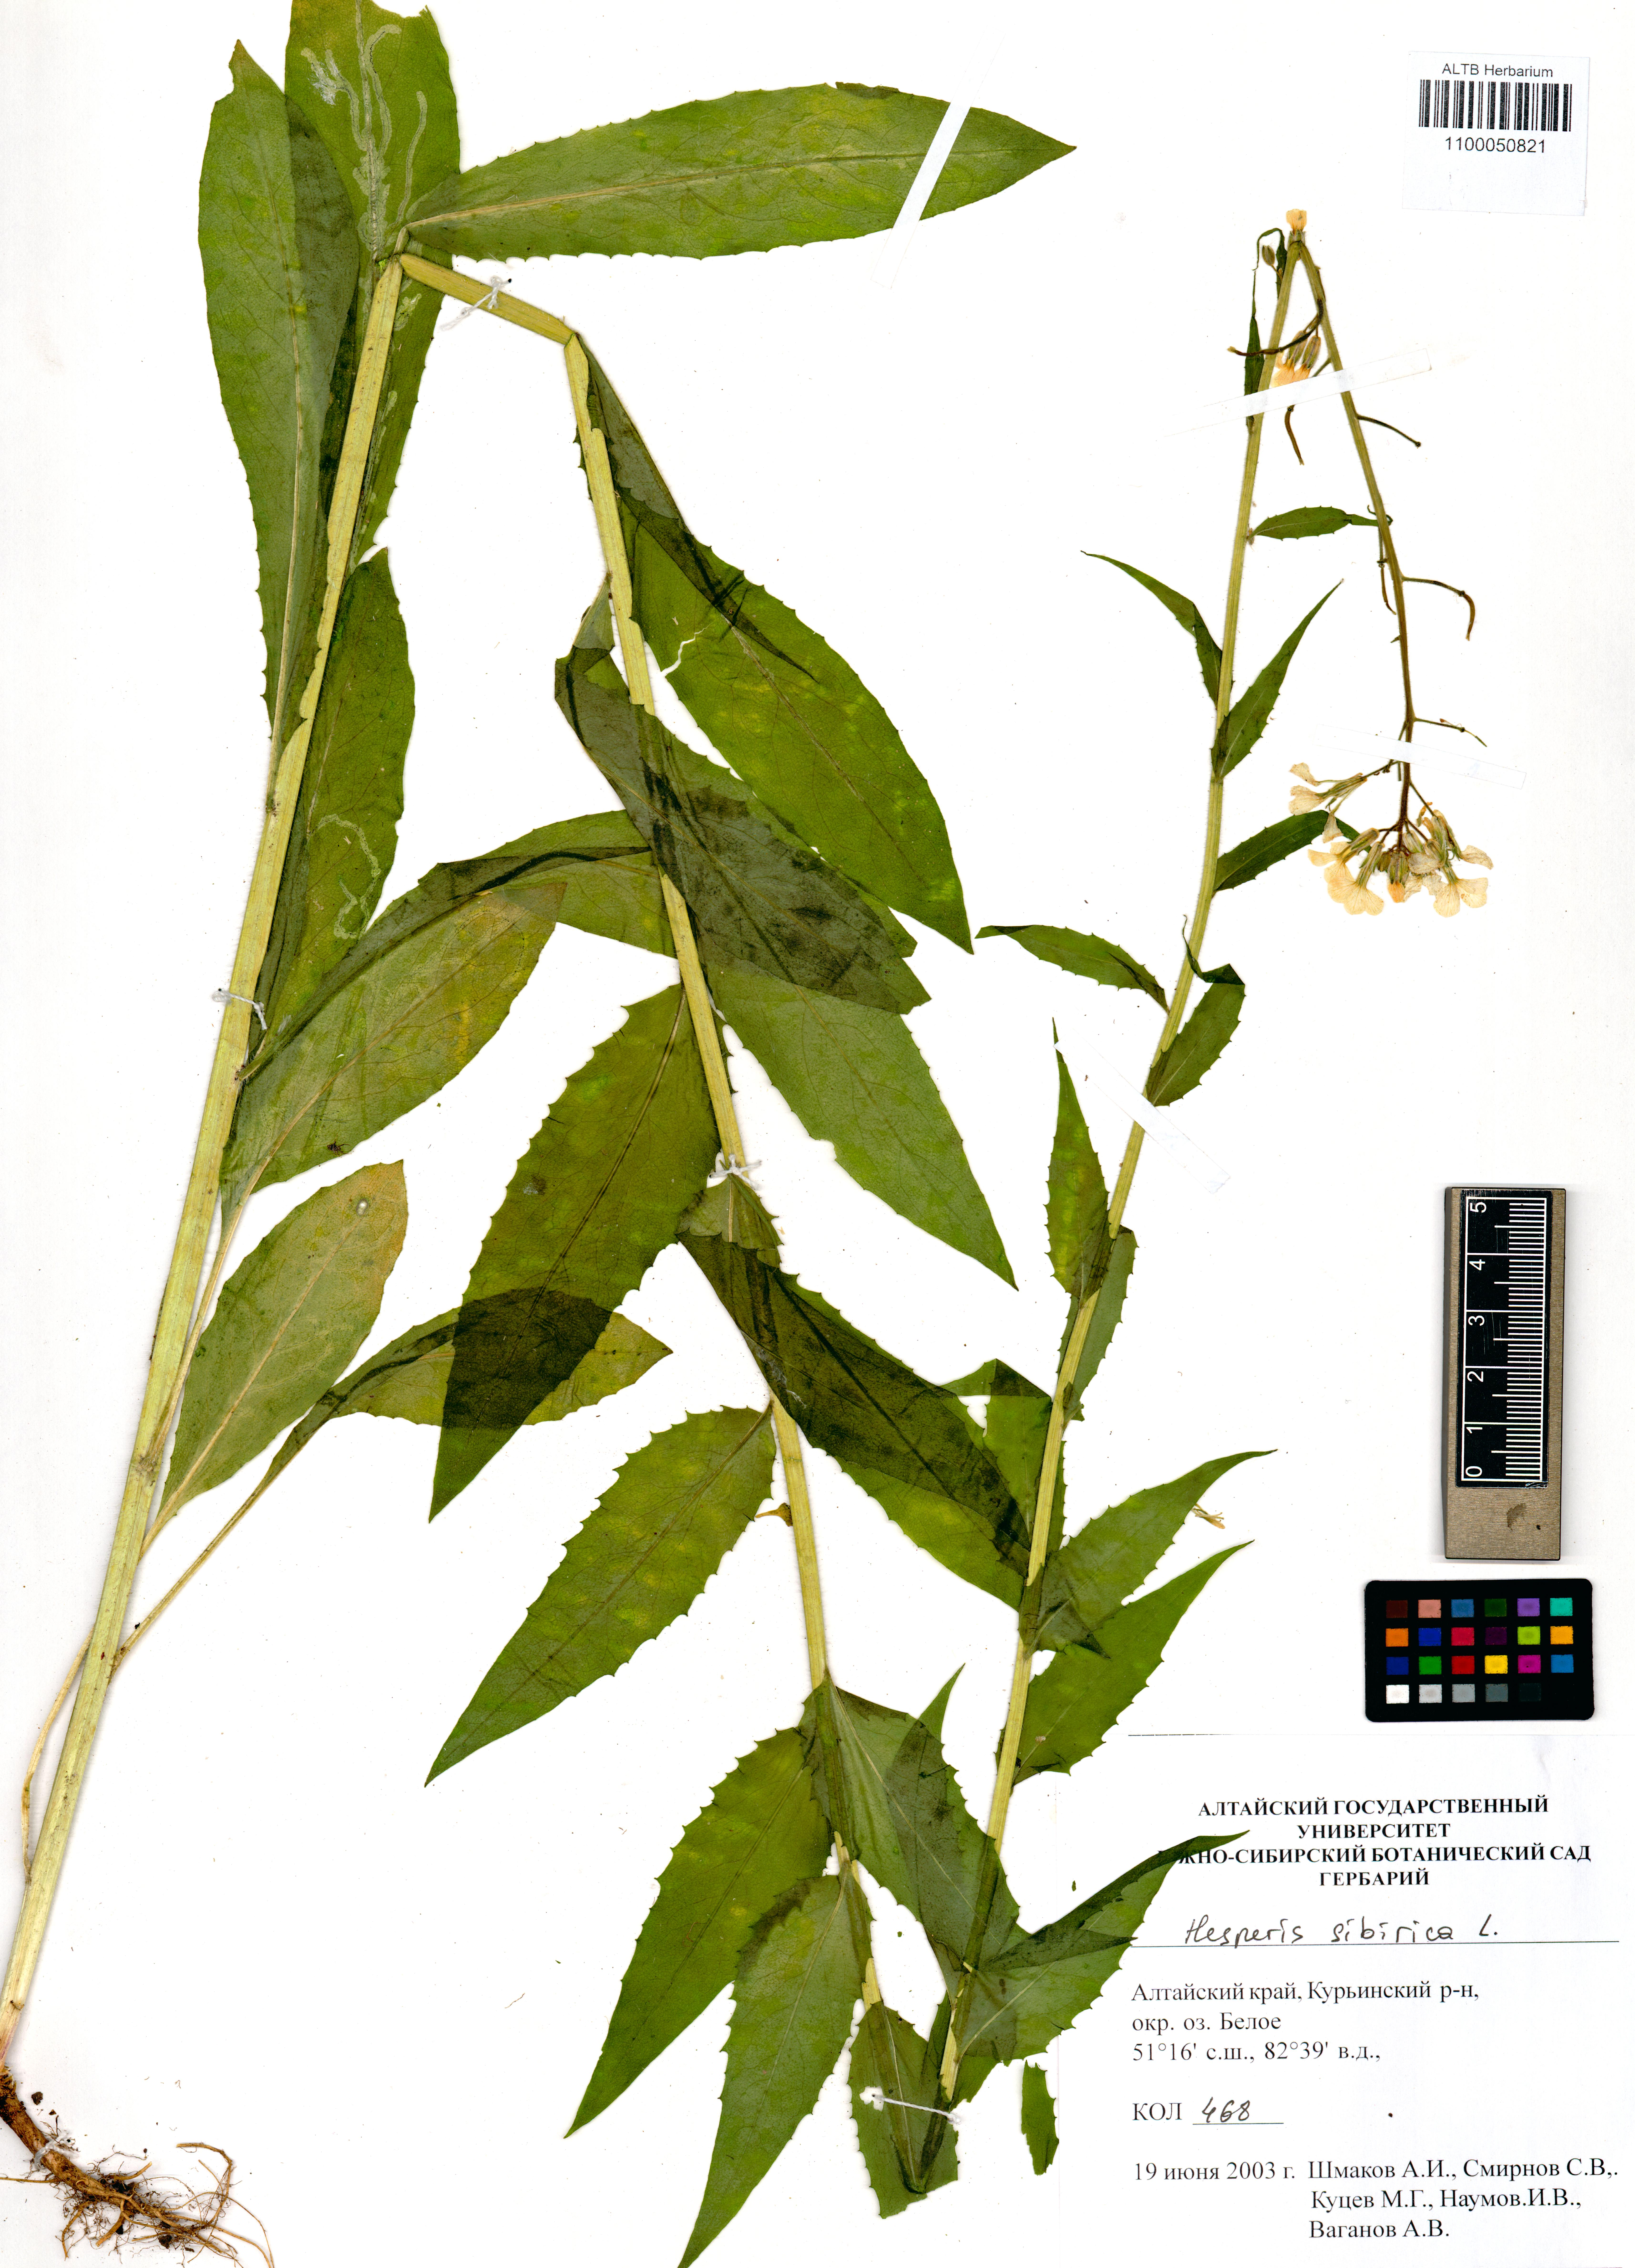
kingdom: Plantae
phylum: Tracheophyta
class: Magnoliopsida
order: Brassicales
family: Brassicaceae
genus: Hesperis
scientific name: Hesperis sibirica
